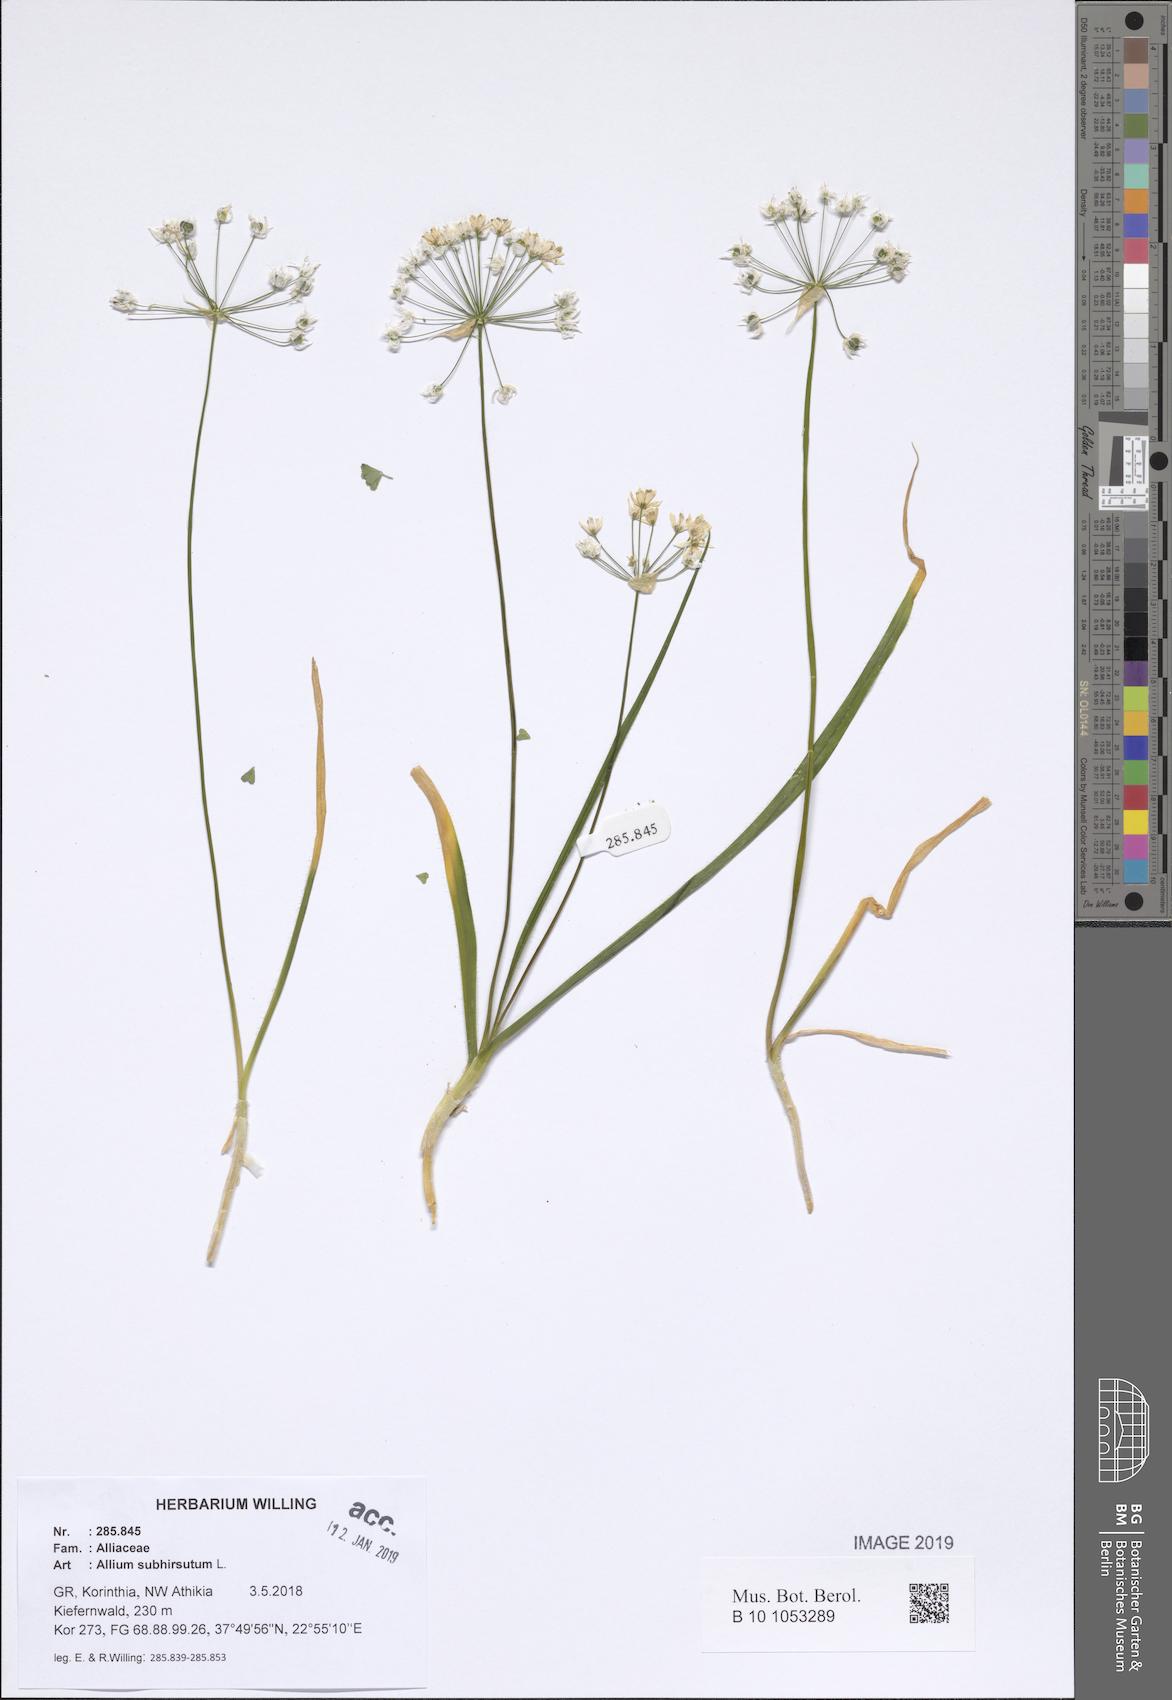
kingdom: Plantae
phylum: Tracheophyta
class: Liliopsida
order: Asparagales
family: Amaryllidaceae
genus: Allium
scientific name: Allium subhirsutum
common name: Hairy garlic
